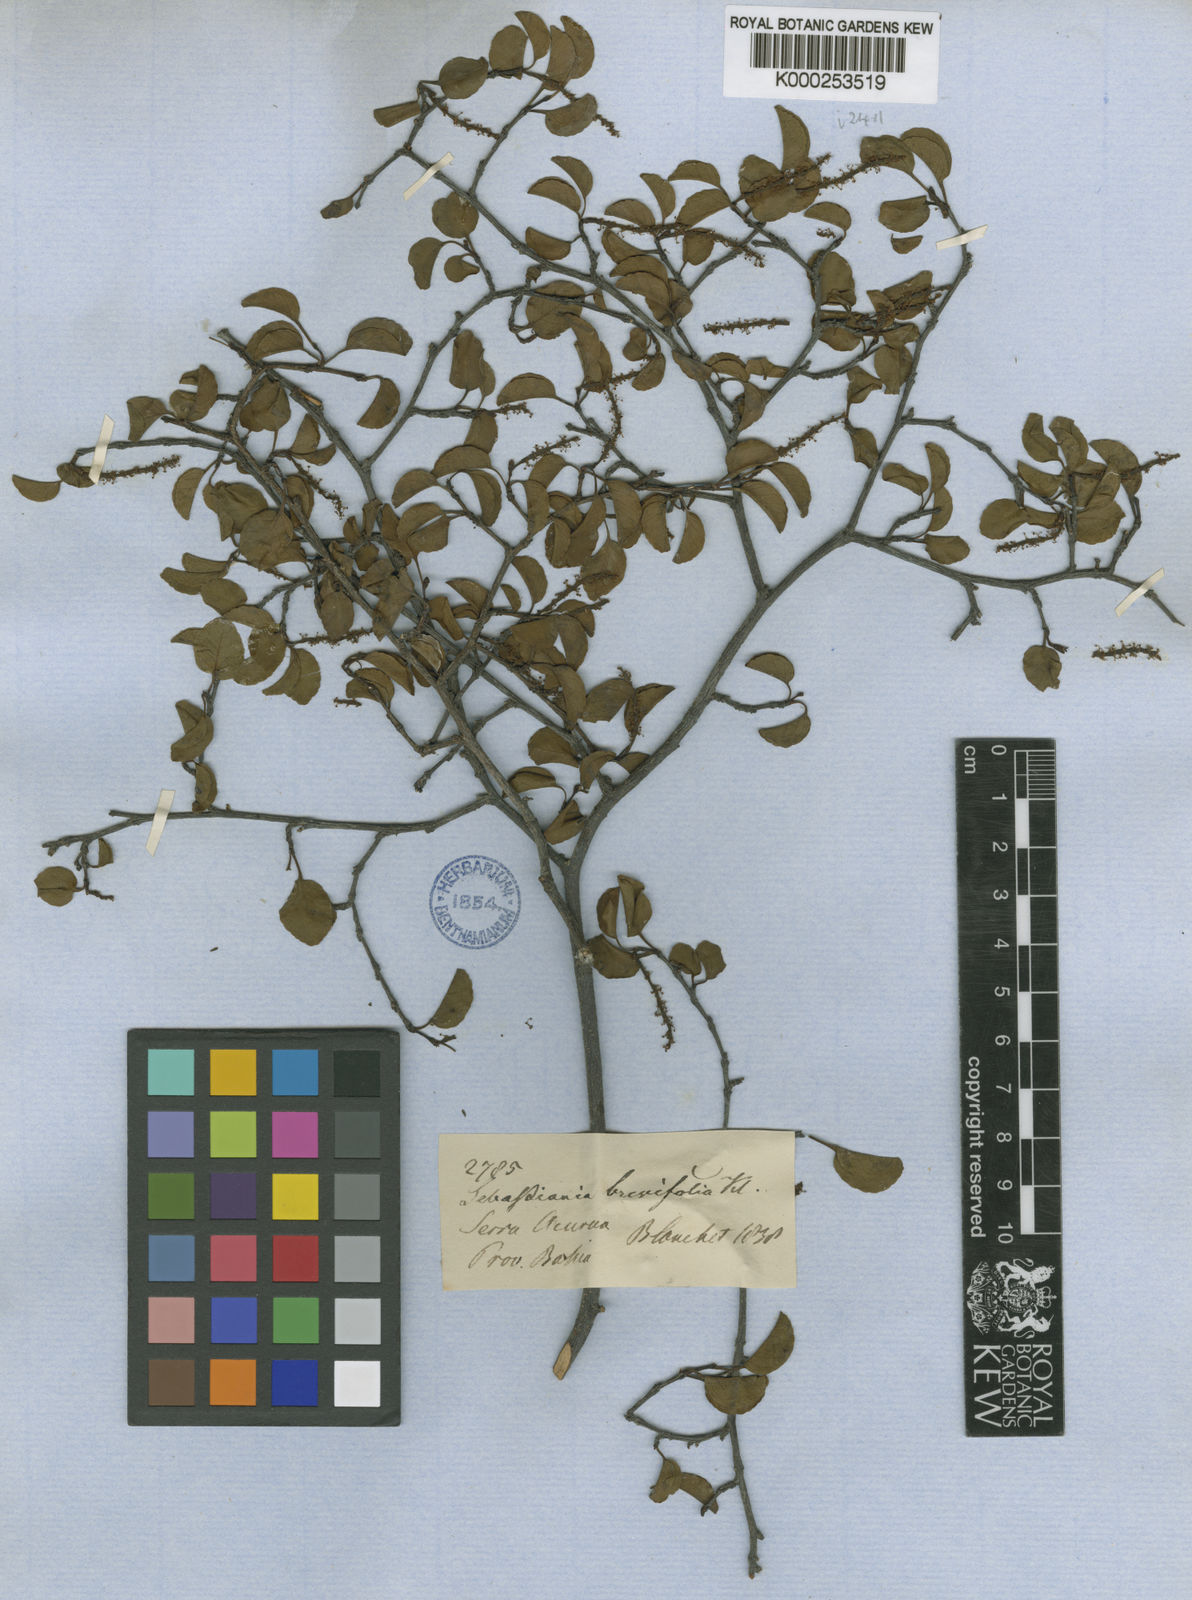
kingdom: Plantae
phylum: Tracheophyta
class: Magnoliopsida
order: Malpighiales
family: Euphorbiaceae
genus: Sebastiania
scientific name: Sebastiania
